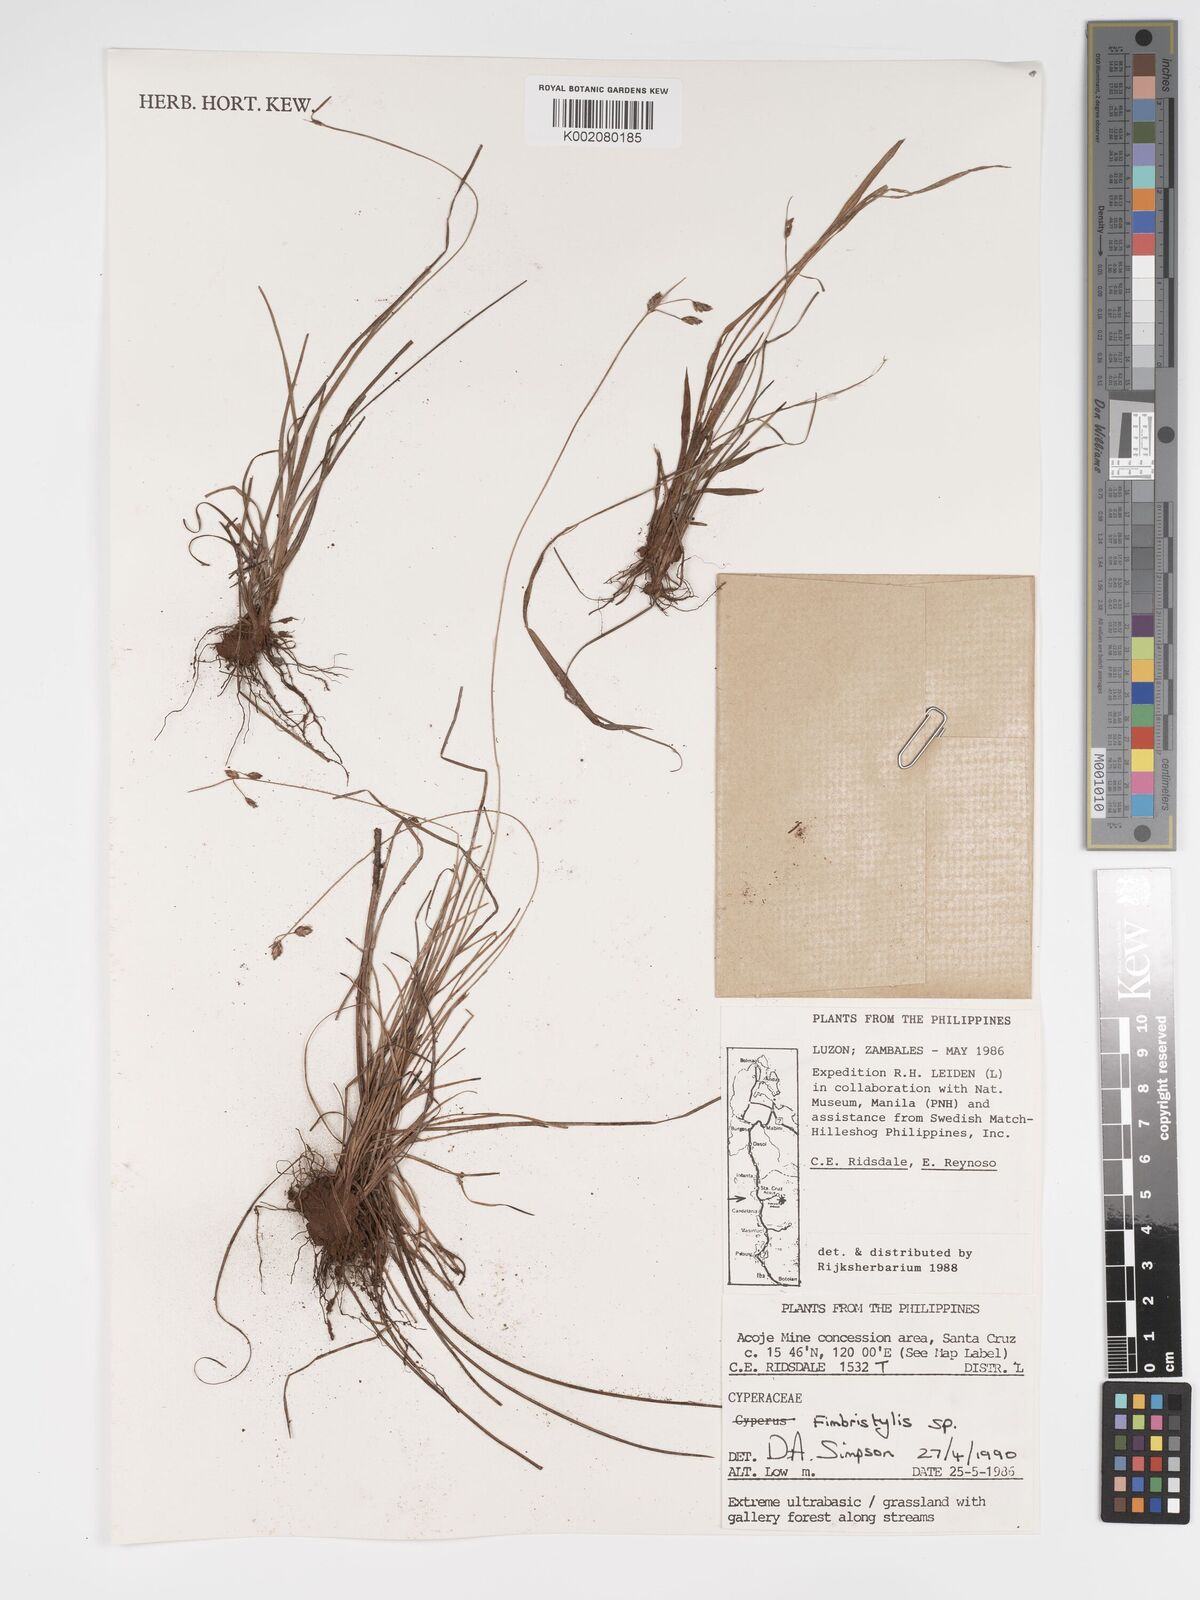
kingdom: Plantae
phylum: Tracheophyta
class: Liliopsida
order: Poales
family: Cyperaceae
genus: Fimbristylis
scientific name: Fimbristylis
